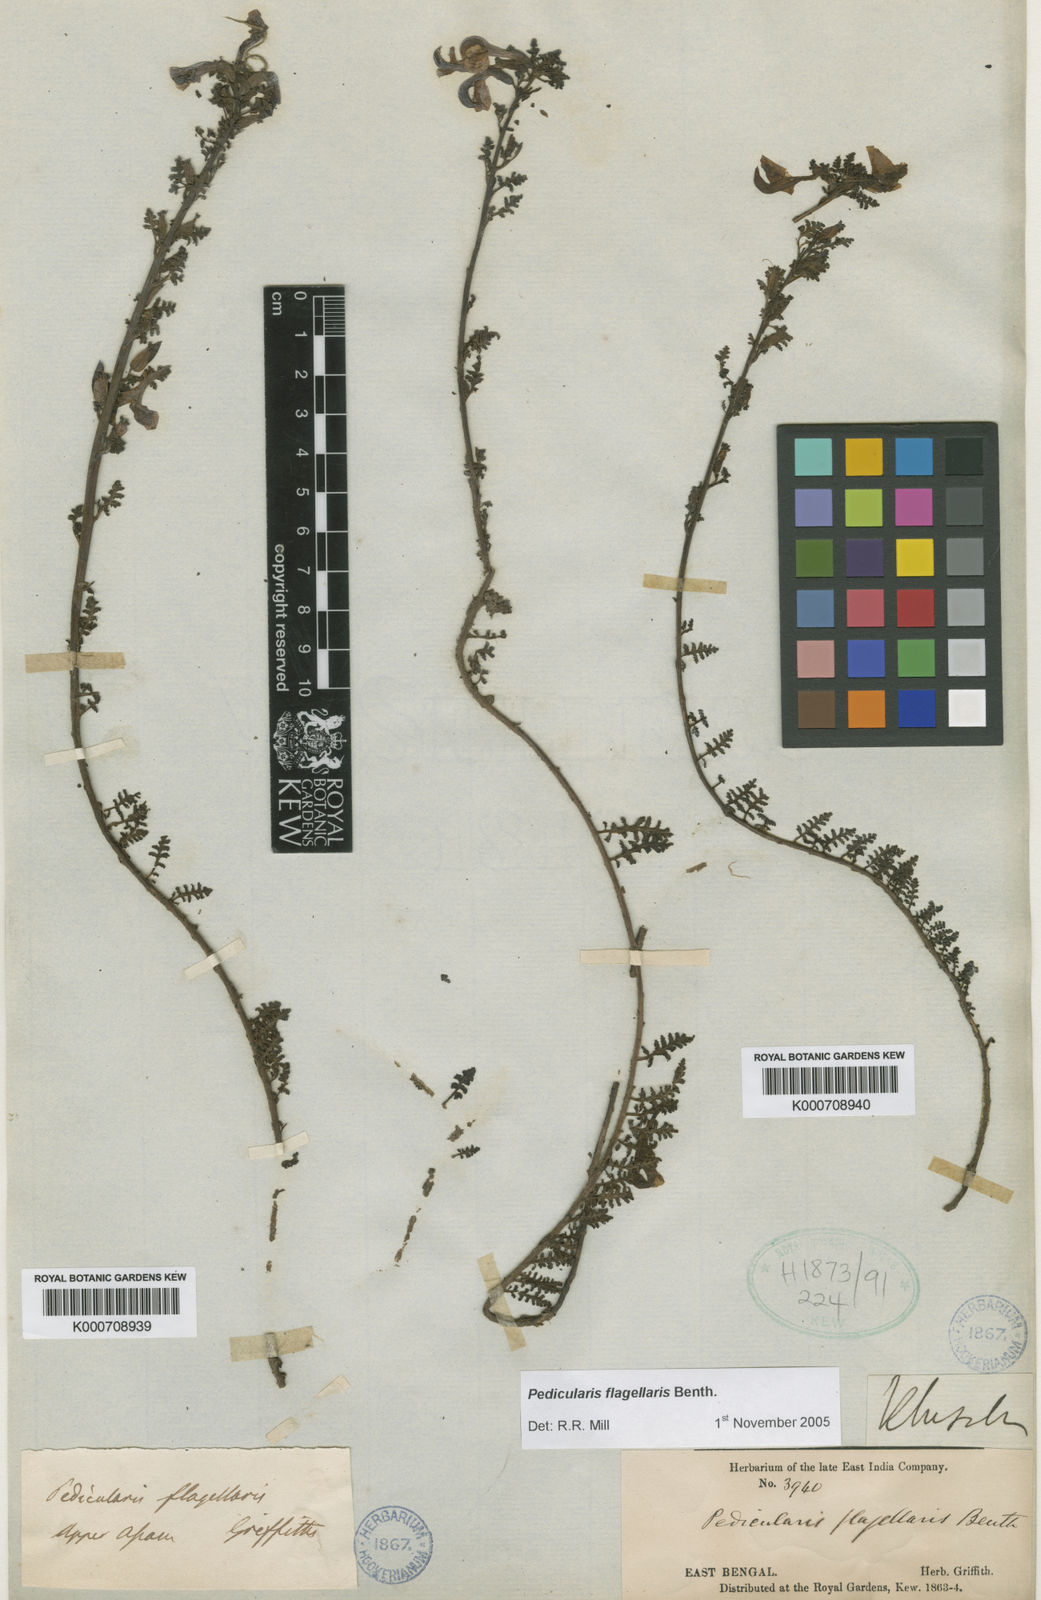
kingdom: Plantae
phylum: Tracheophyta
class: Magnoliopsida
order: Lamiales
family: Orobanchaceae
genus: Pedicularis
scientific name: Pedicularis flagellaris
